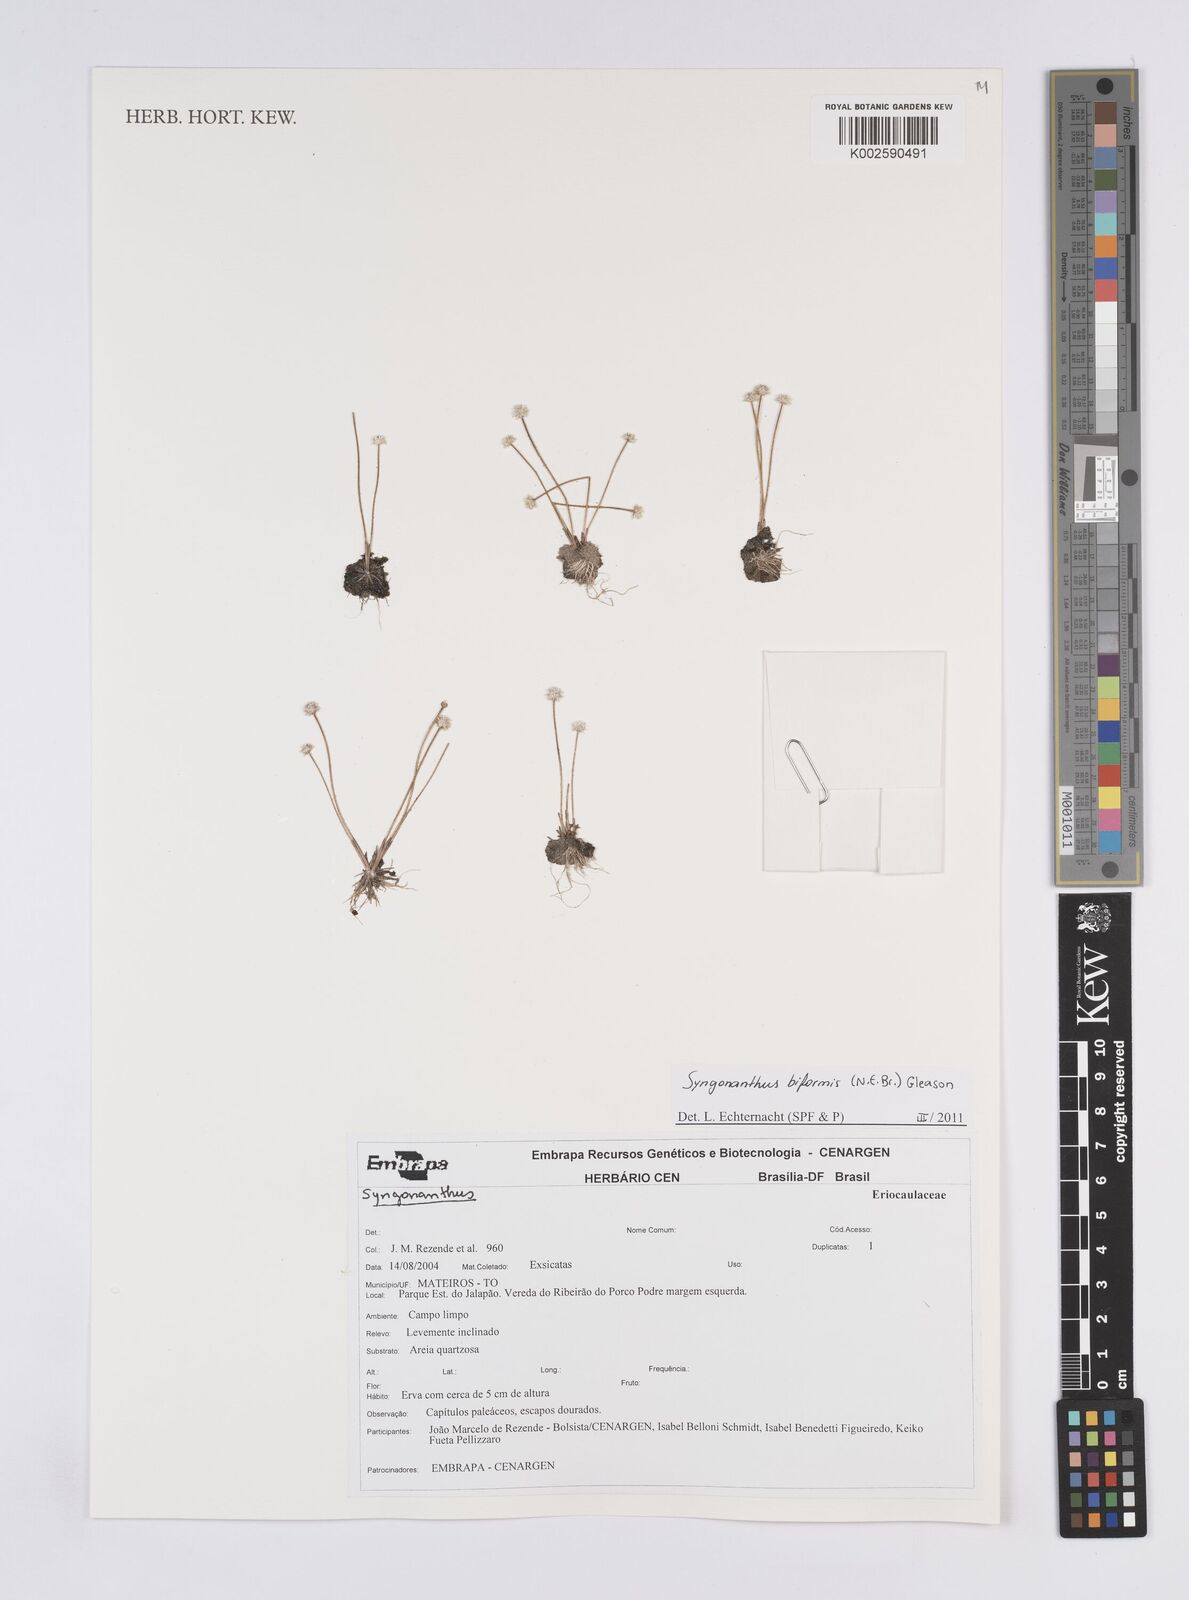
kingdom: Plantae
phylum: Tracheophyta
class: Liliopsida
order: Poales
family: Eriocaulaceae
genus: Syngonanthus
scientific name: Syngonanthus biformis
